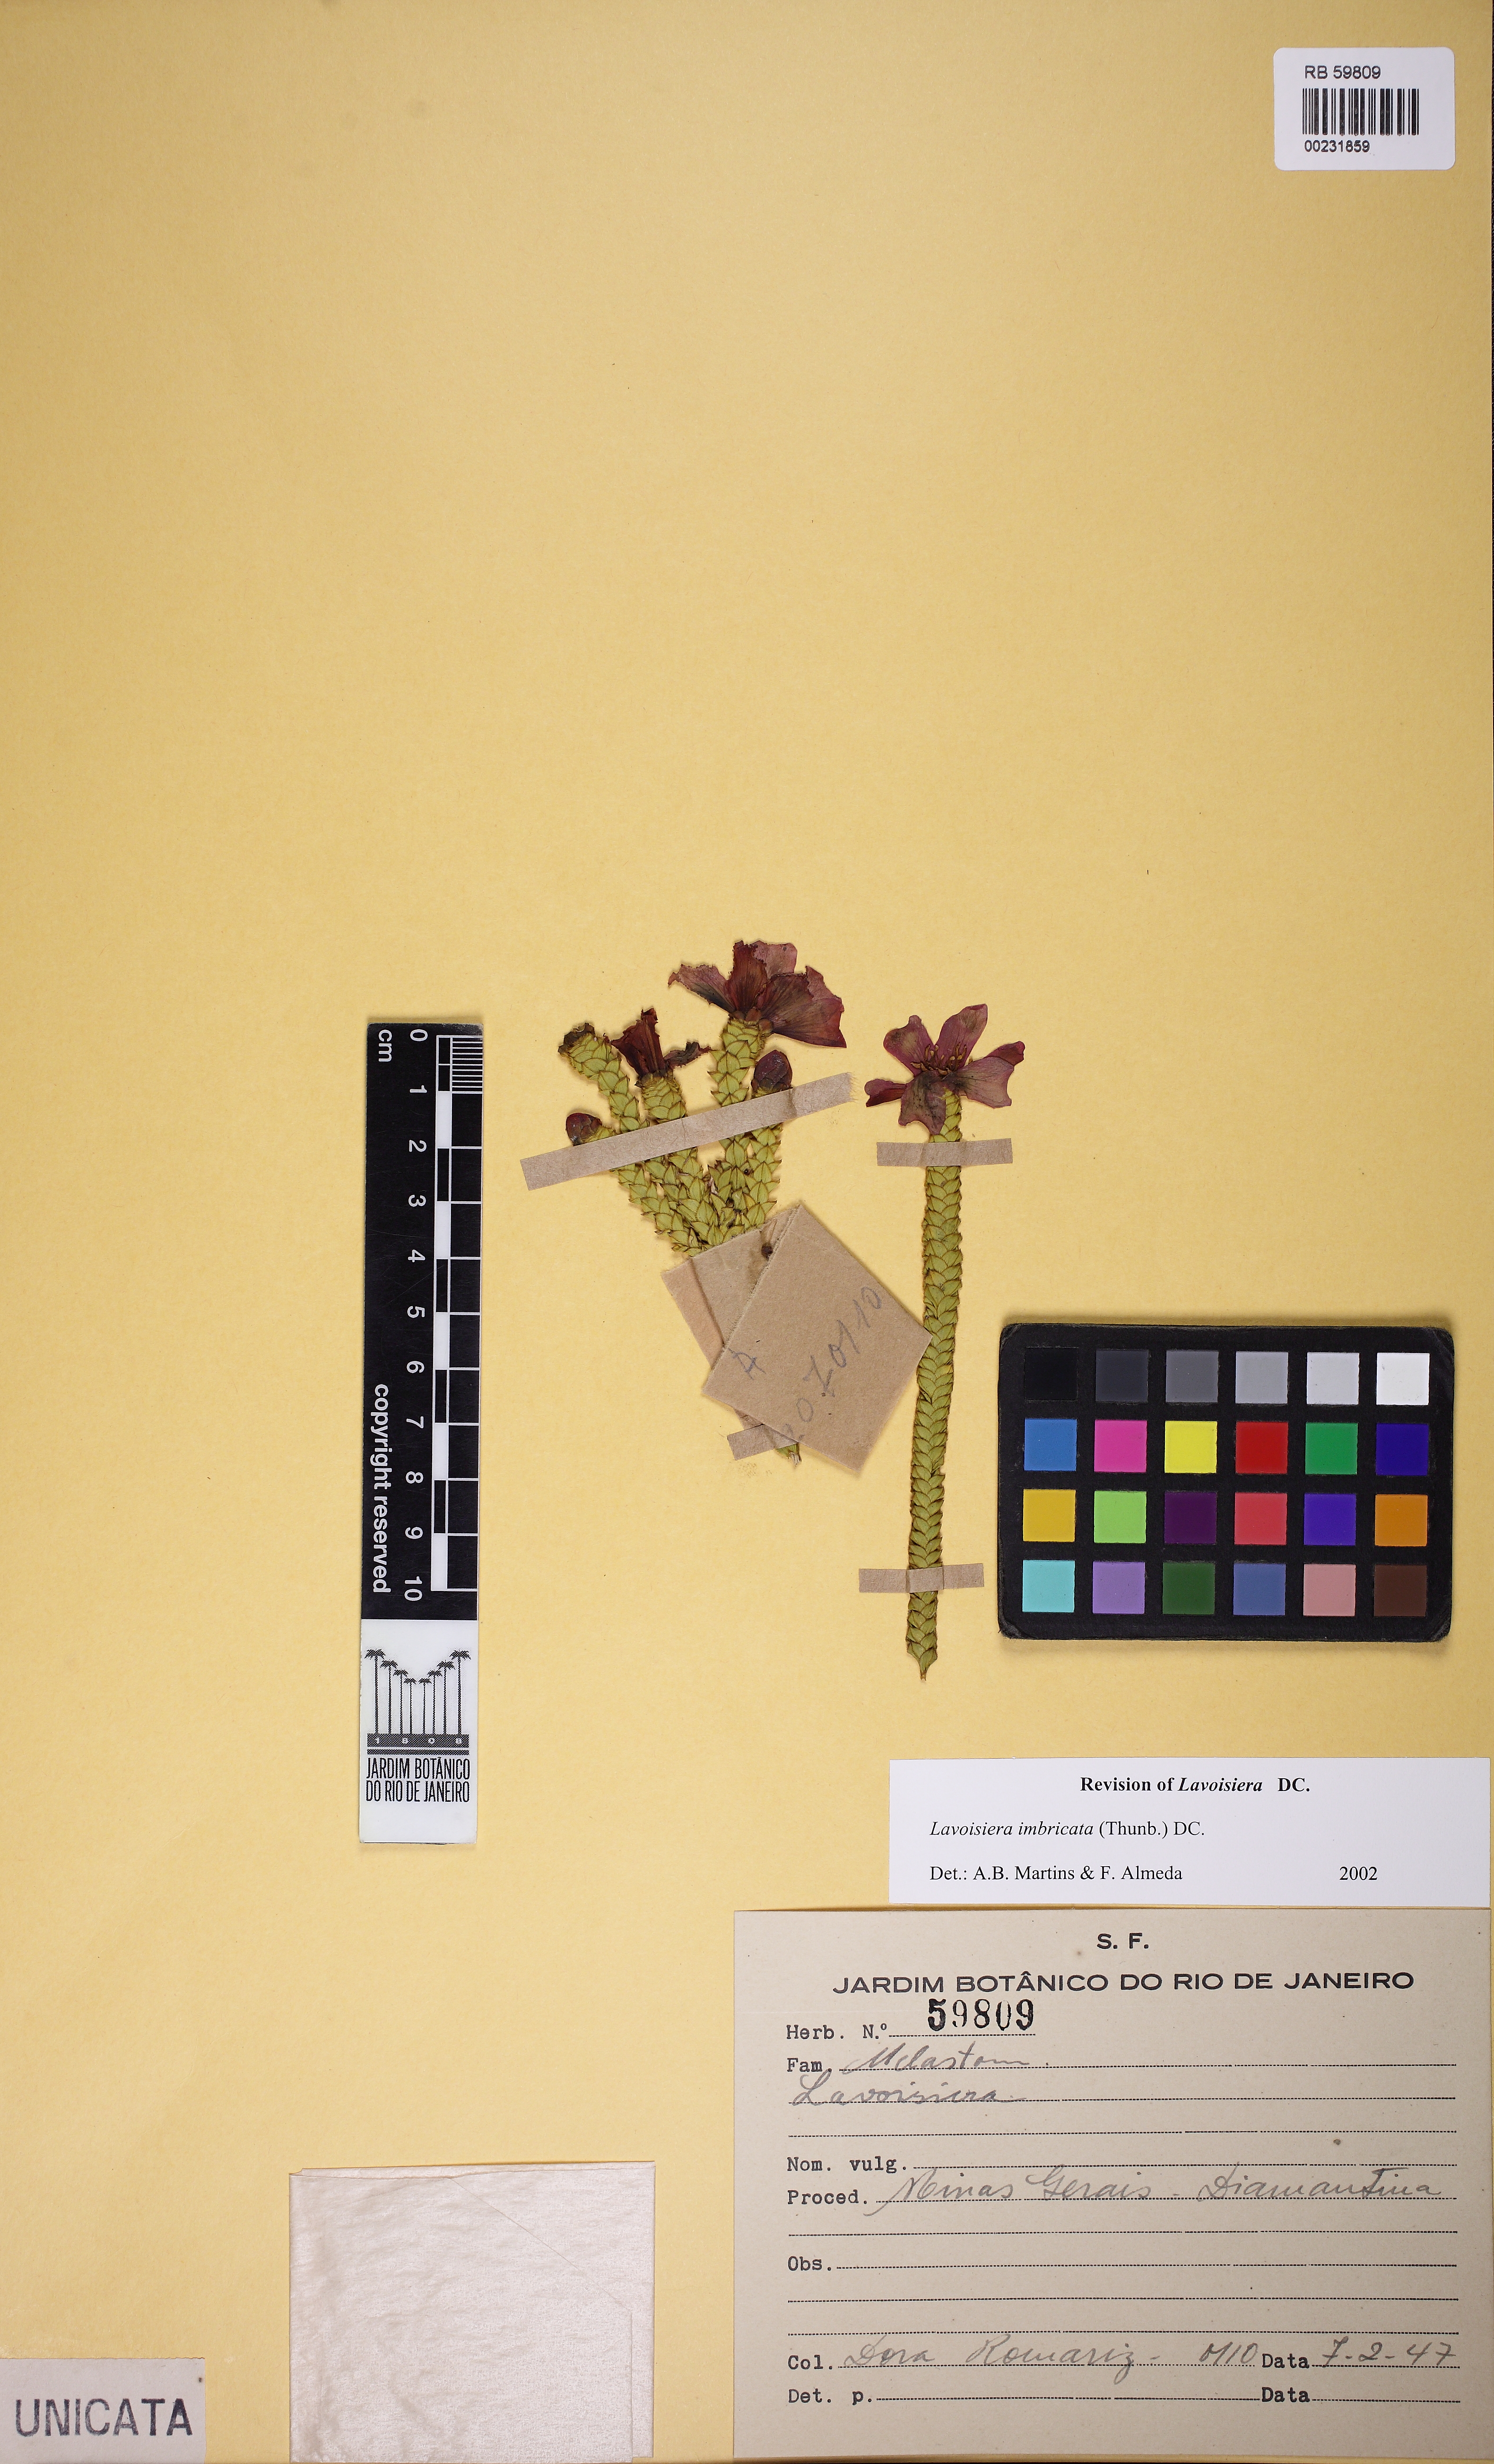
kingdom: Plantae
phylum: Tracheophyta
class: Magnoliopsida
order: Myrtales
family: Melastomataceae
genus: Microlicia
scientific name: Microlicia cataphracta
